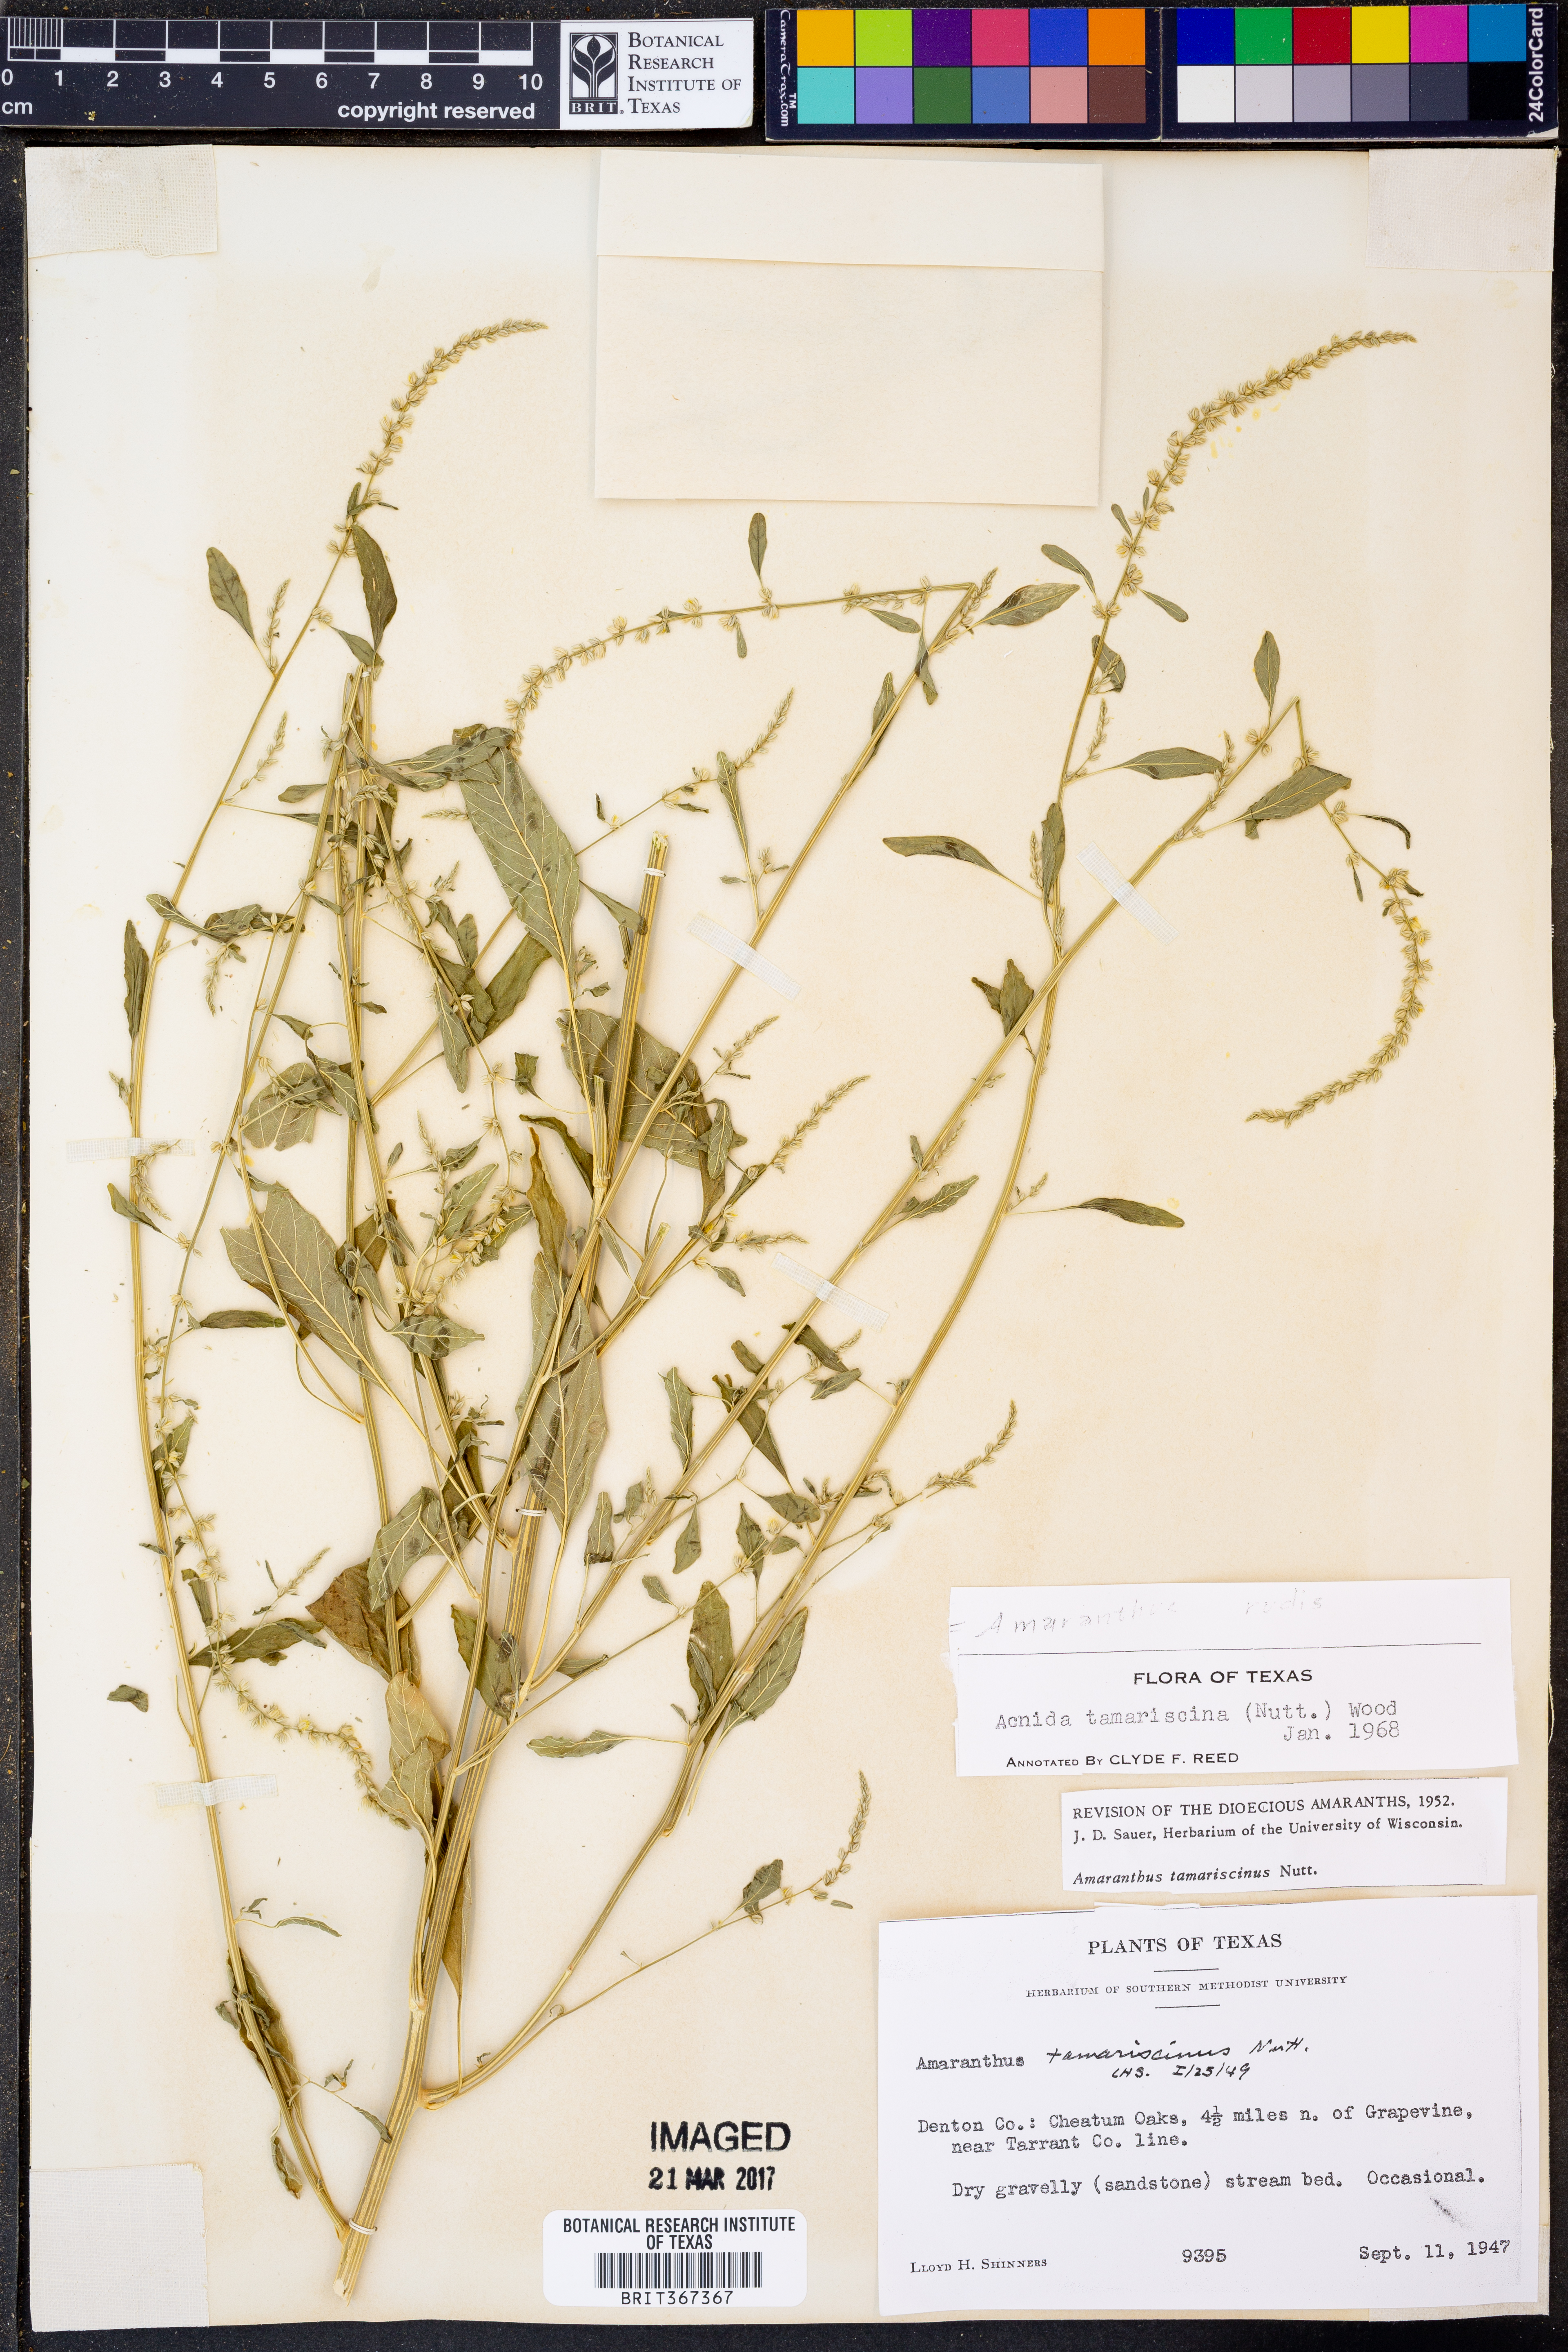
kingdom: Plantae
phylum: Tracheophyta
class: Magnoliopsida
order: Caryophyllales
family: Amaranthaceae
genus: Amaranthus
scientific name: Amaranthus tuberculatus
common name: Rough-fruit amaranth
